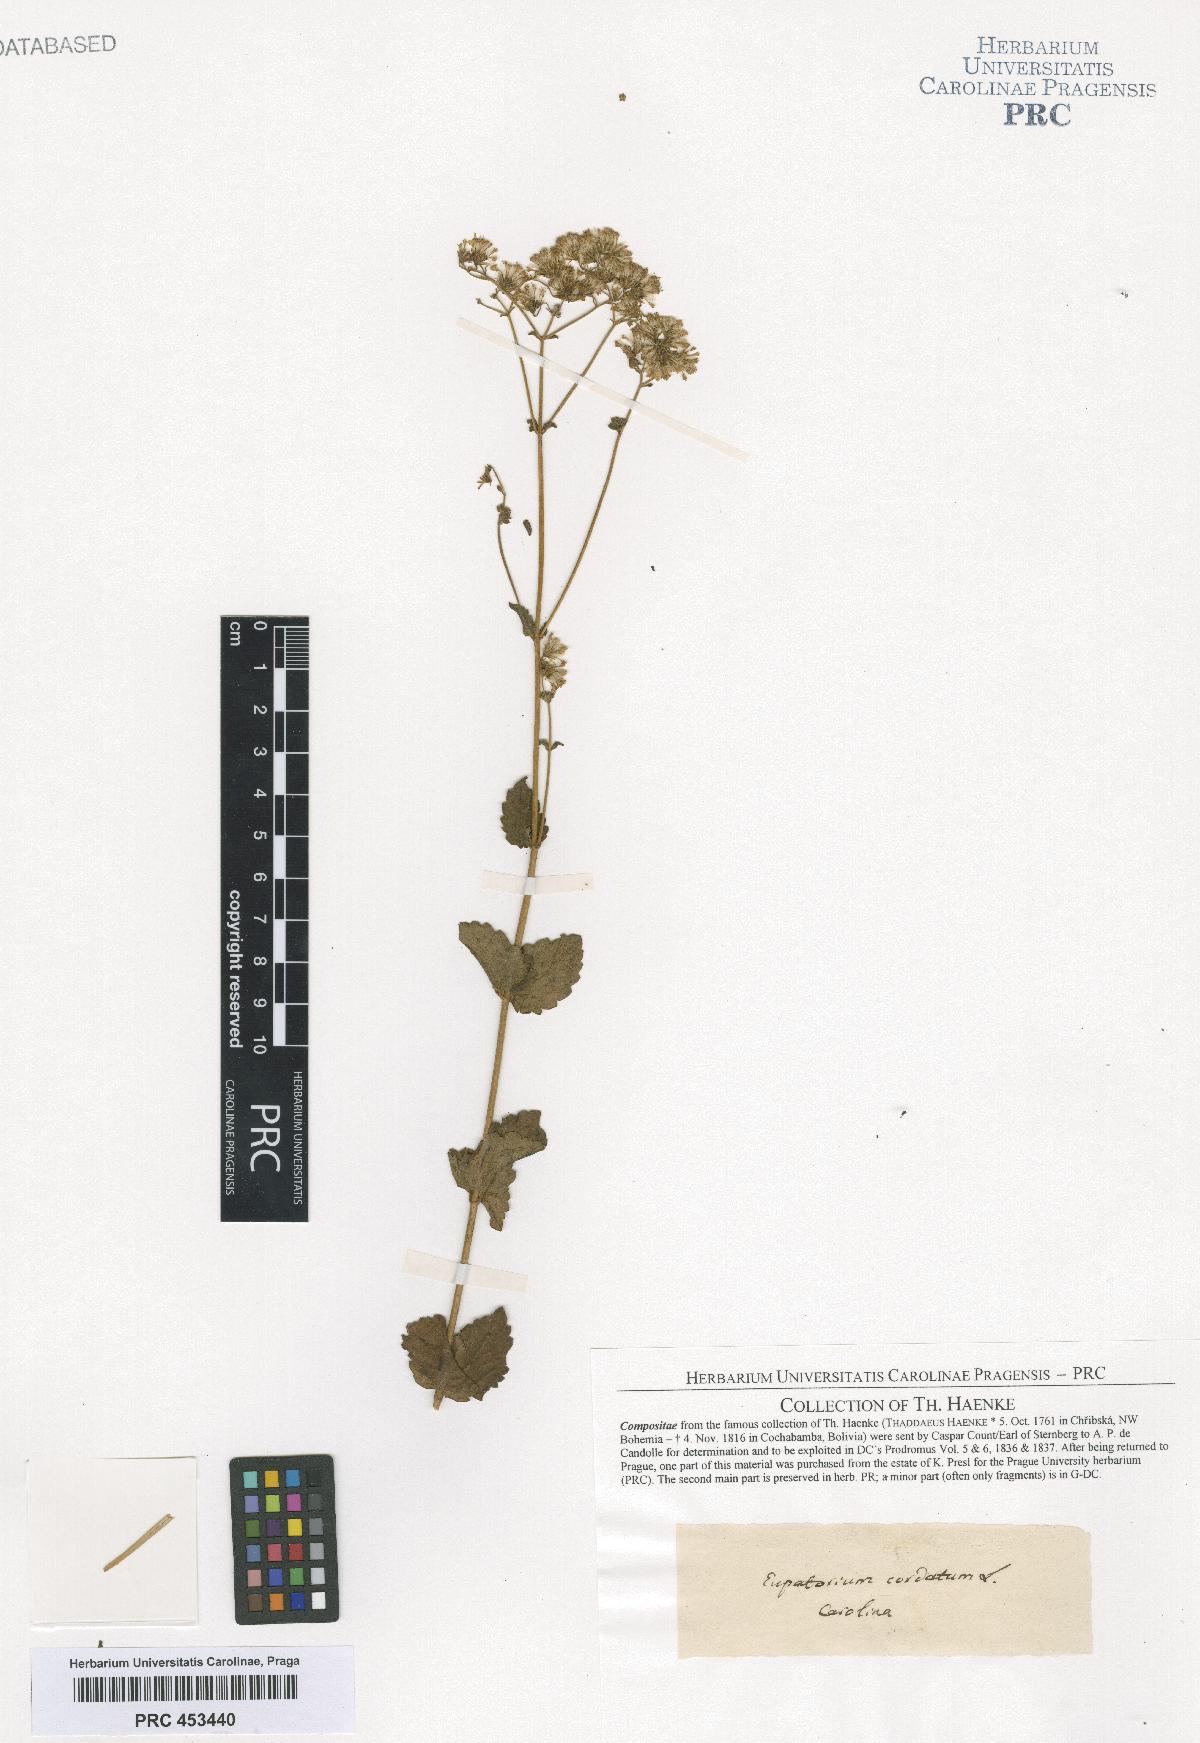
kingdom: Plantae
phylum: Tracheophyta
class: Magnoliopsida
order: Asterales
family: Asteraceae
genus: Eupatorium
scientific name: Eupatorium
